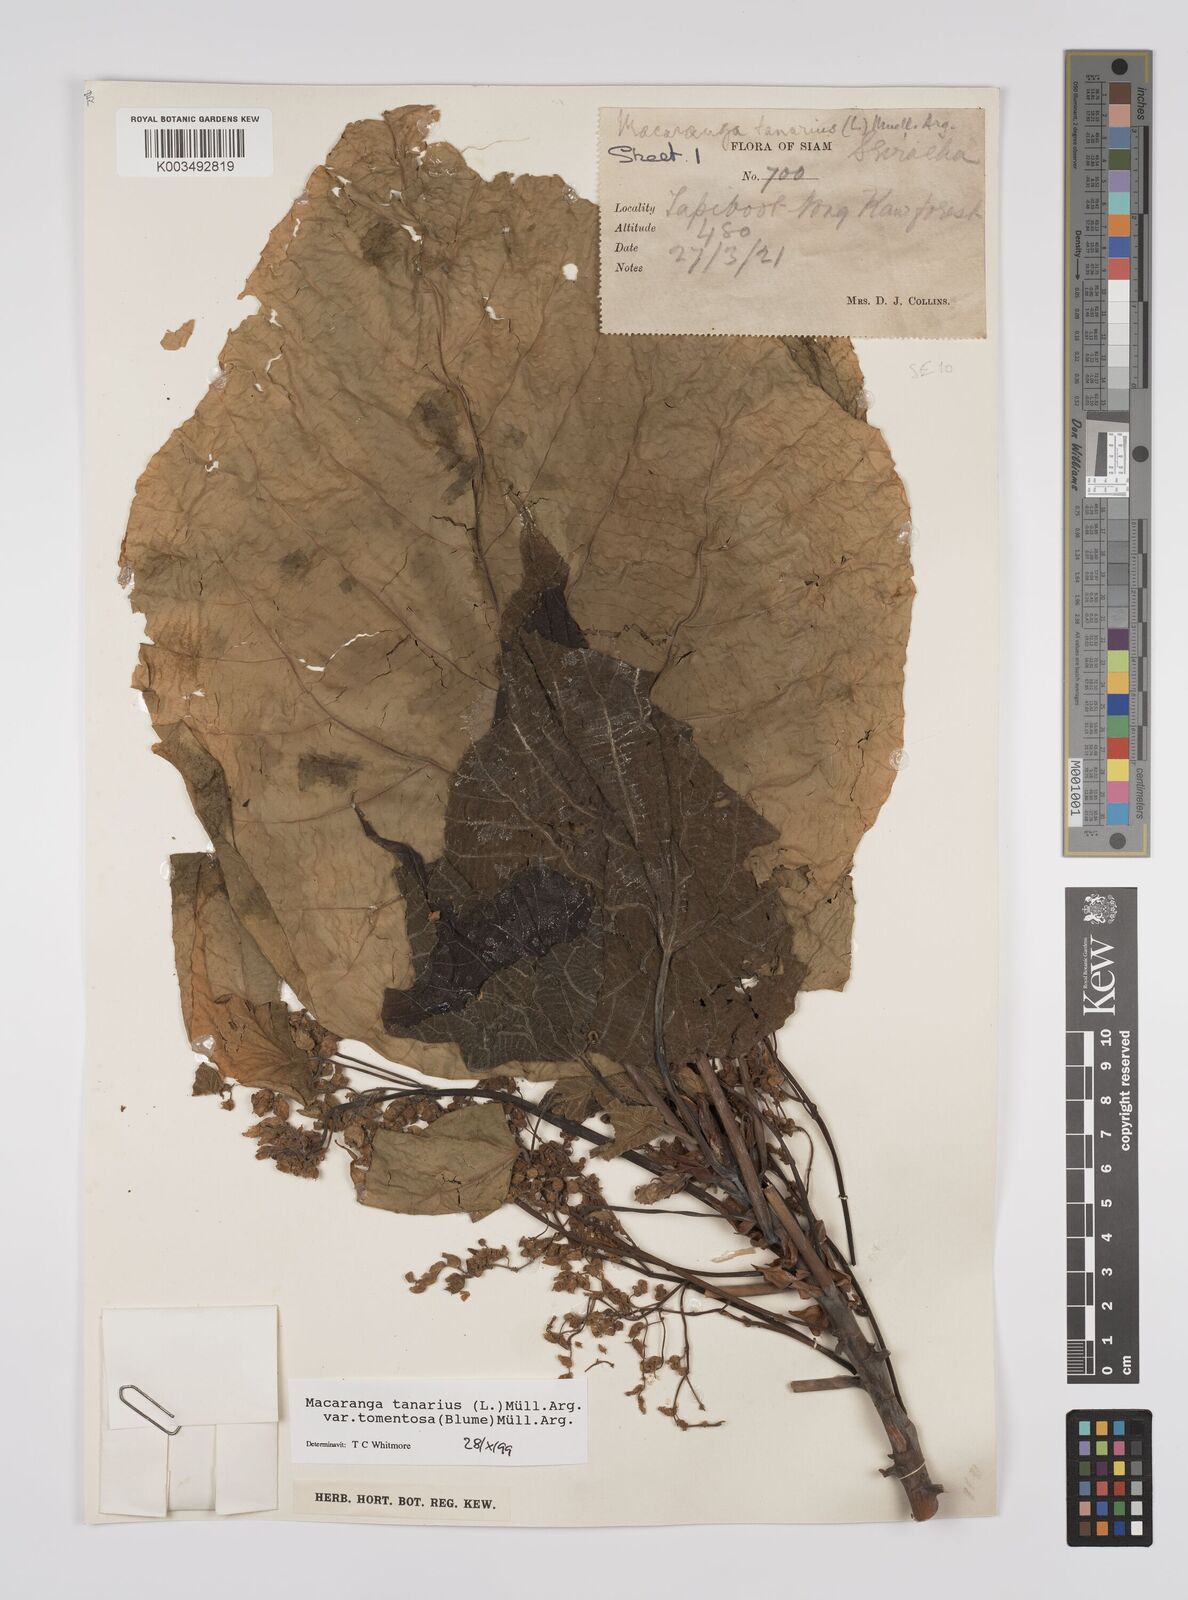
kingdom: Plantae
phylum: Tracheophyta
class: Magnoliopsida
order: Malpighiales
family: Euphorbiaceae
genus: Macaranga
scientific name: Macaranga tanarius
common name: Parasol leaf tree
